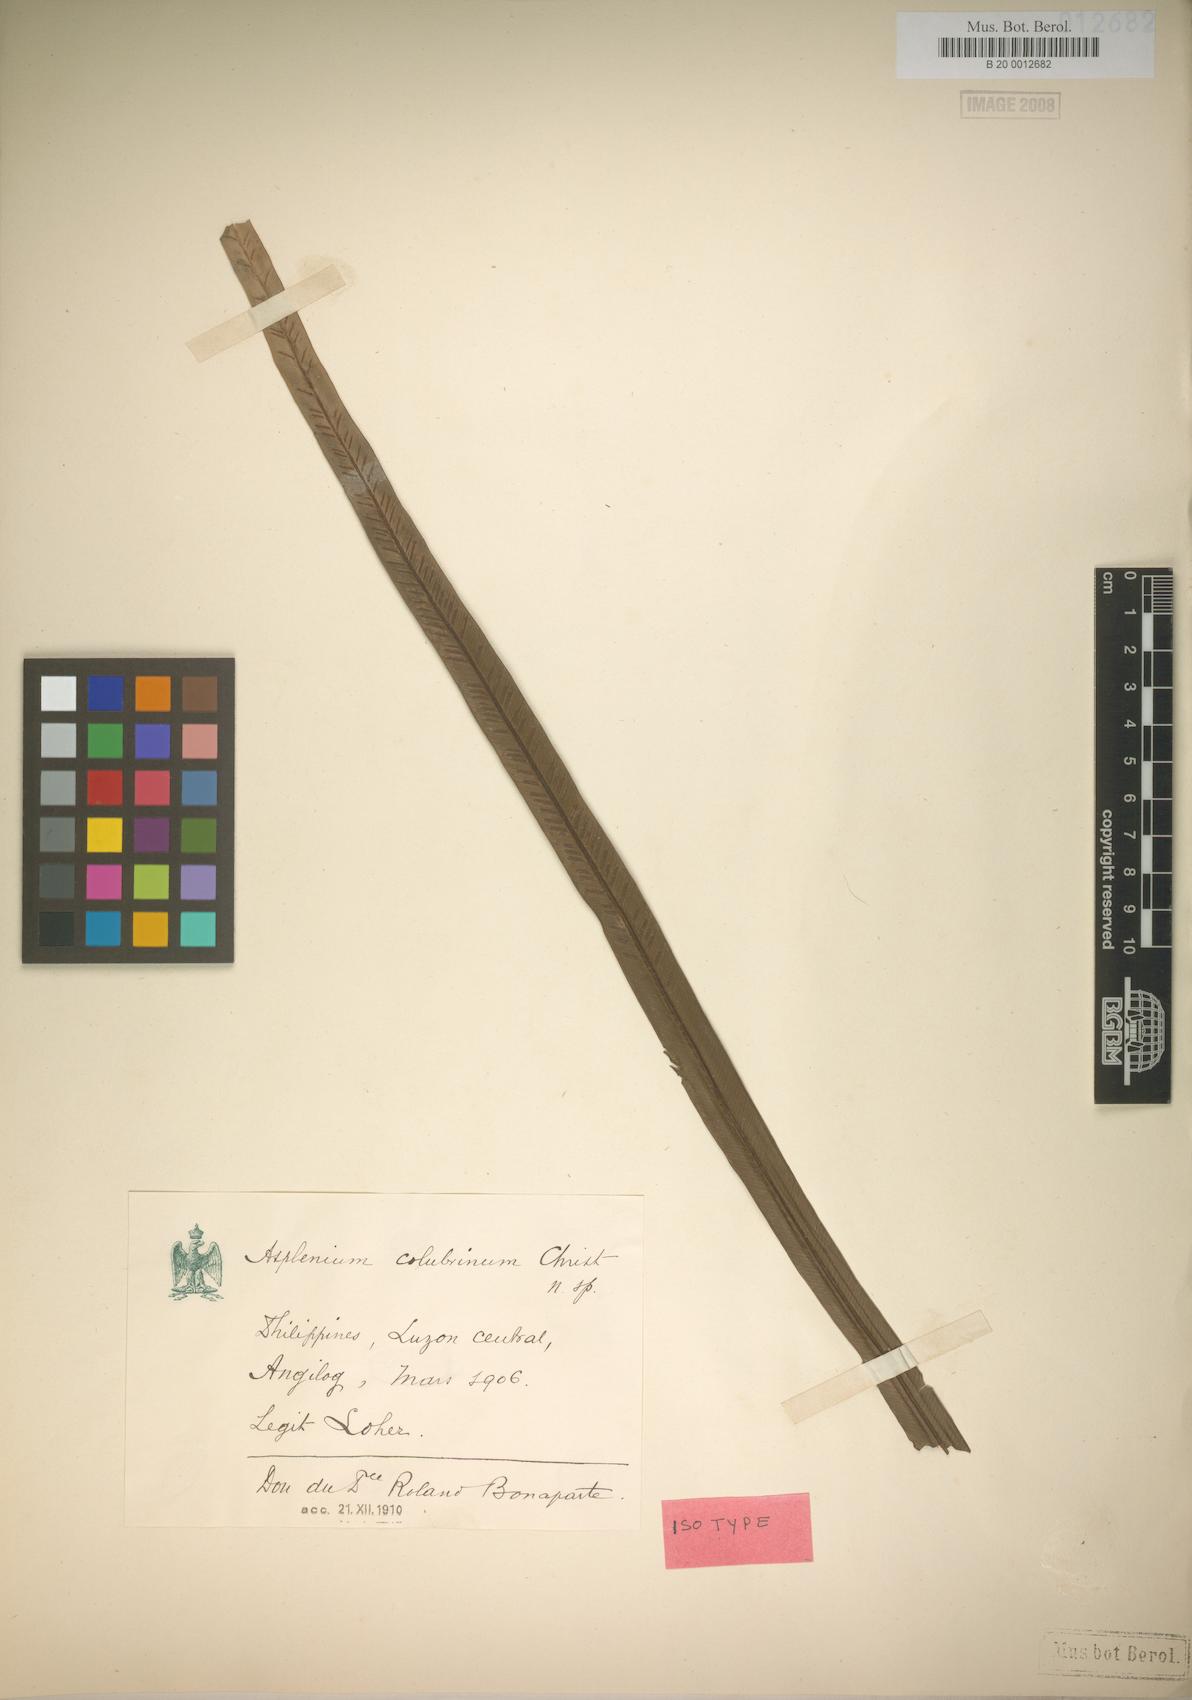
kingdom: Plantae
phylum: Tracheophyta
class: Polypodiopsida
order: Polypodiales
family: Aspleniaceae
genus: Asplenium
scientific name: Asplenium colubrinum
